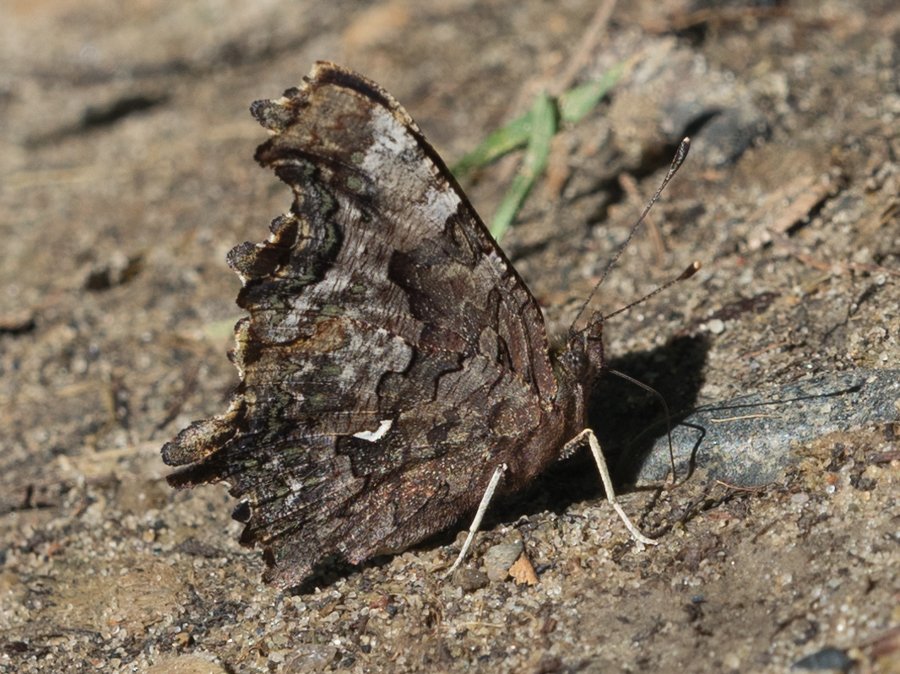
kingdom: Animalia
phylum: Arthropoda
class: Insecta
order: Lepidoptera
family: Nymphalidae
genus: Polygonia
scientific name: Polygonia faunus
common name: Green Comma
